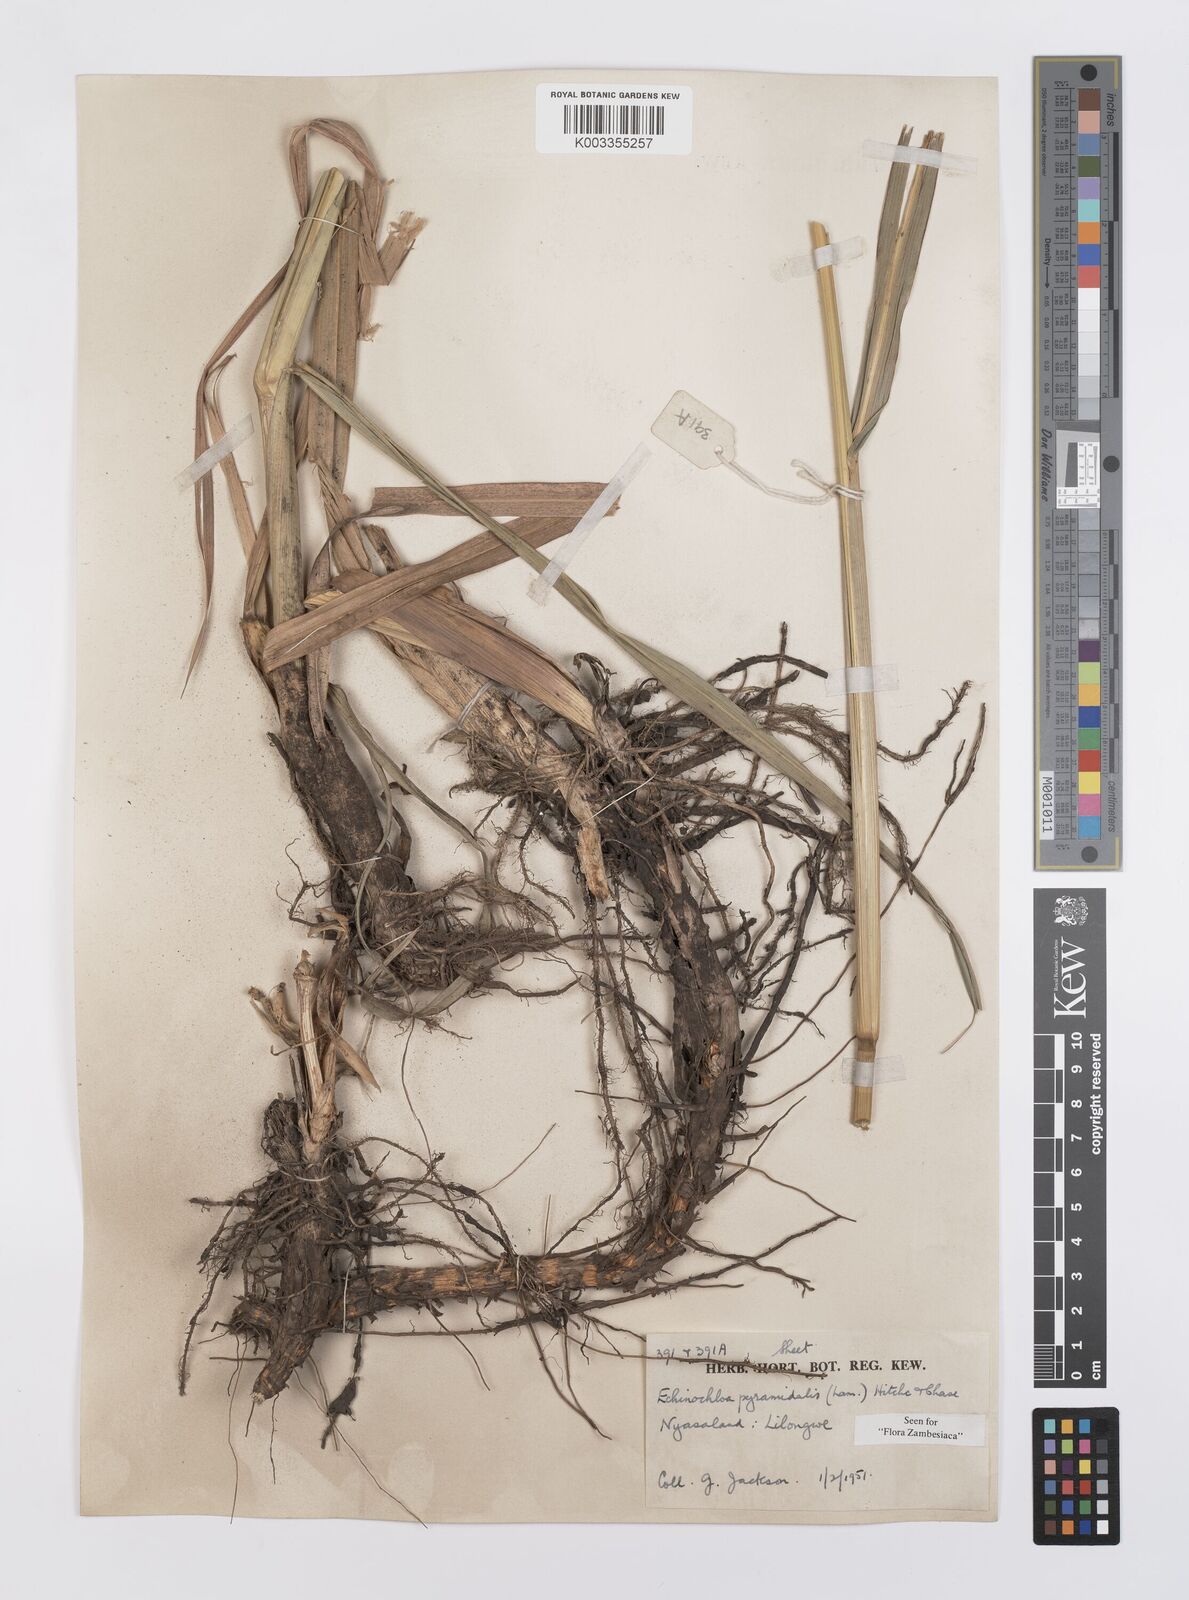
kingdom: Plantae
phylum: Tracheophyta
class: Liliopsida
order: Poales
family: Poaceae
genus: Echinochloa
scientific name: Echinochloa pyramidalis
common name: Antelope grass
